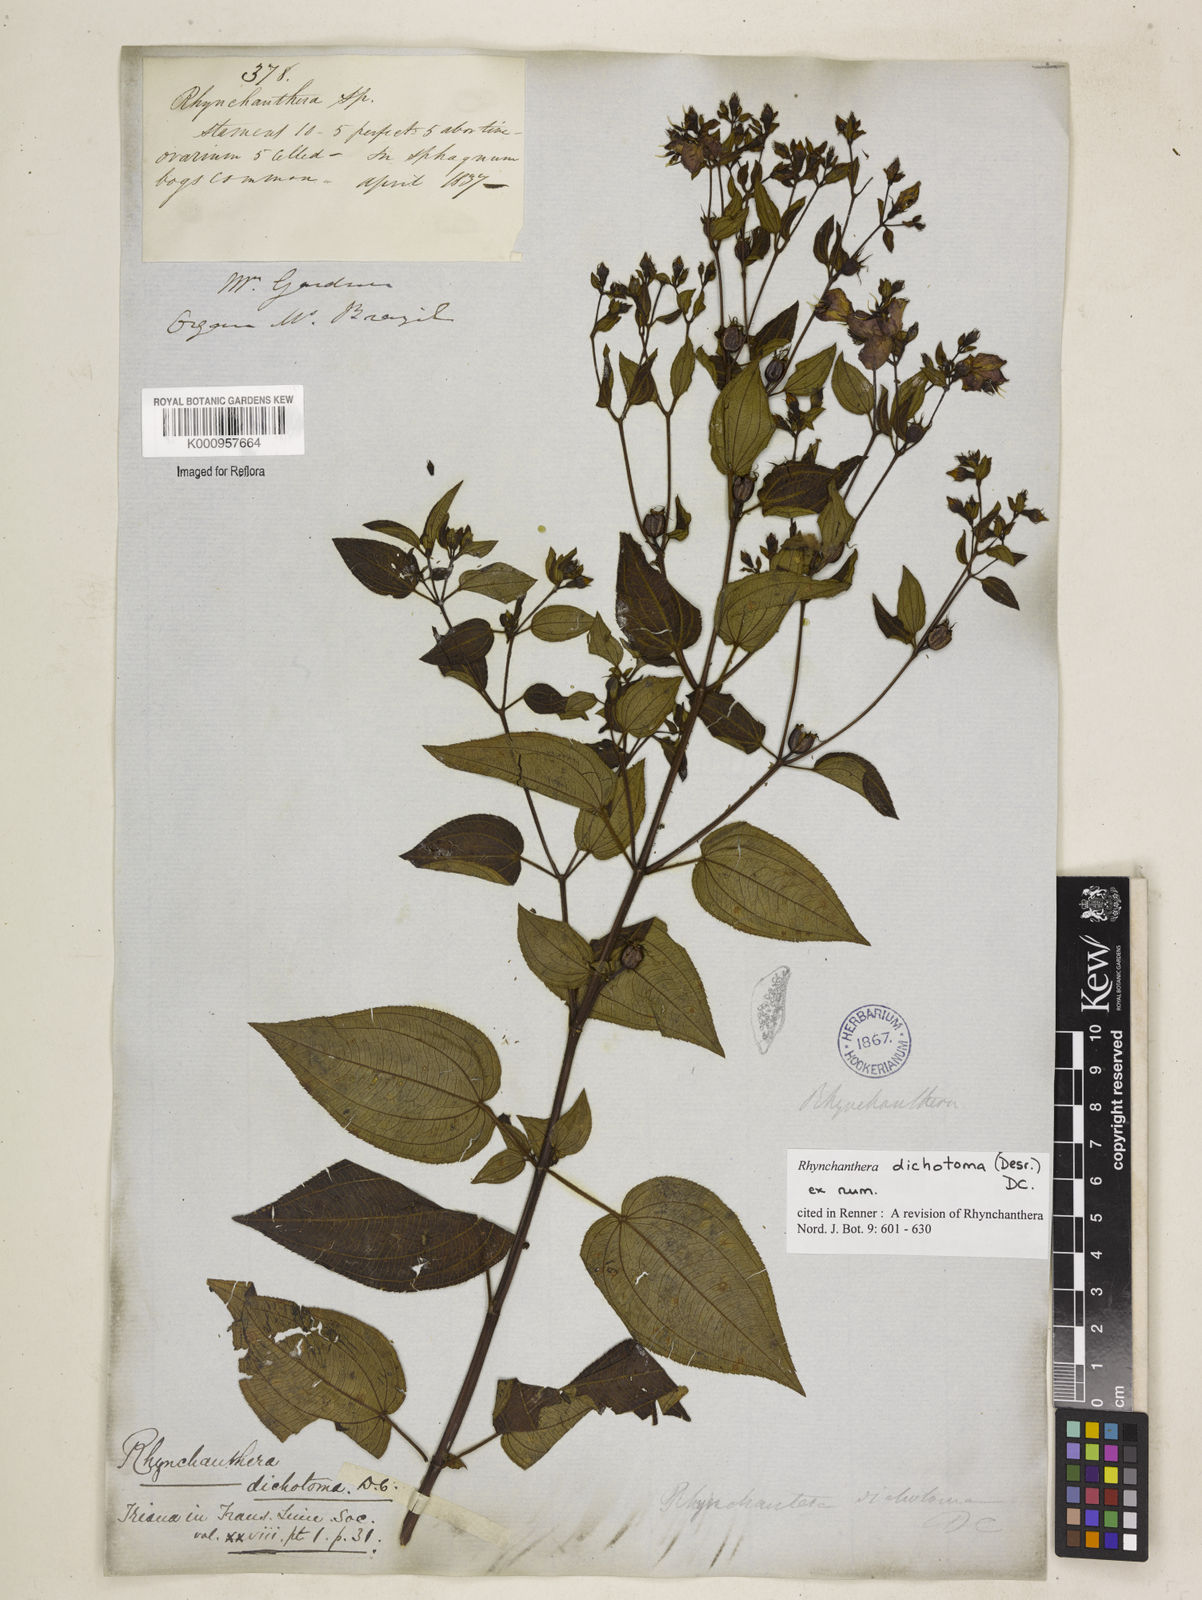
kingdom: Plantae
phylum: Tracheophyta
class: Magnoliopsida
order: Myrtales
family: Melastomataceae
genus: Rhynchanthera
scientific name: Rhynchanthera dichotoma
